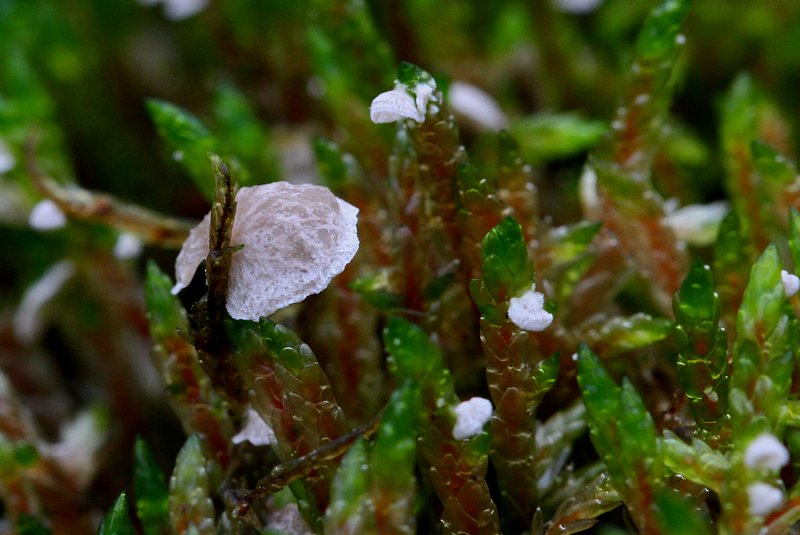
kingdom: Fungi
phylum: Basidiomycota
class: Agaricomycetes
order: Agaricales
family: Hygrophoraceae
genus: Arrhenia
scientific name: Arrhenia retiruga
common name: lille fontænehat
